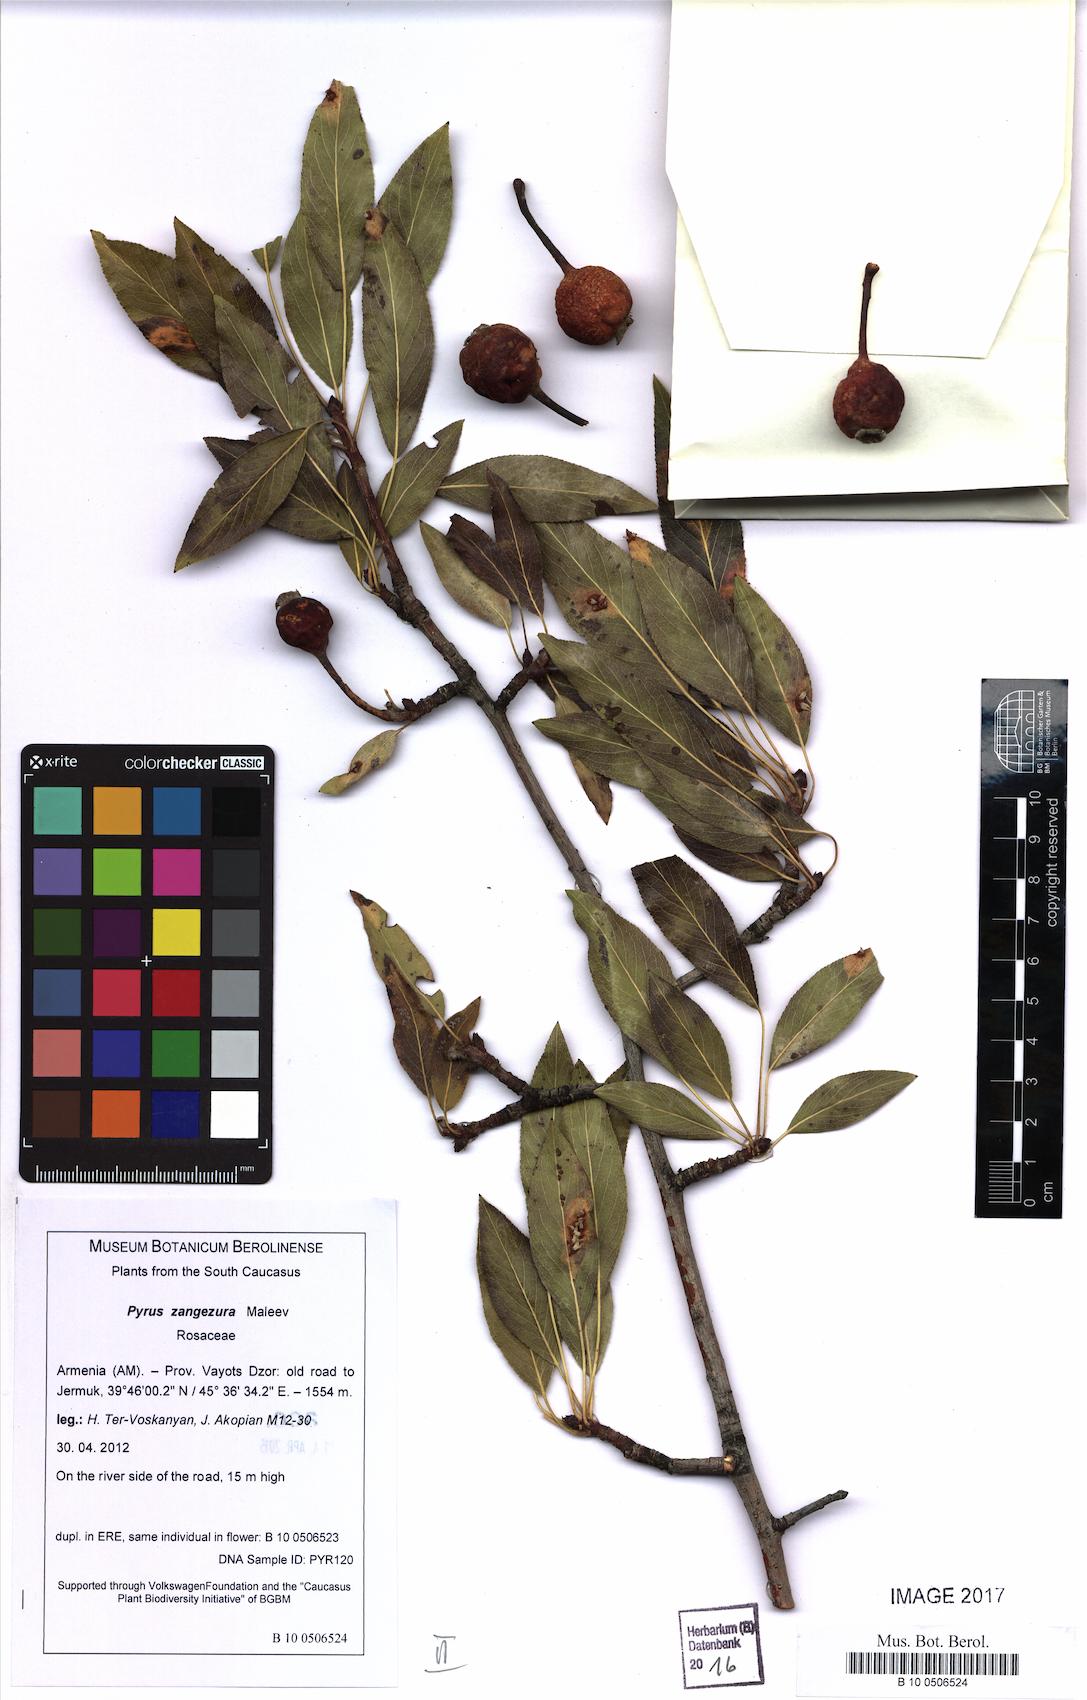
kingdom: Plantae
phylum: Tracheophyta
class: Magnoliopsida
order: Rosales
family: Rosaceae
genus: Pyrus
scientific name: Pyrus zangezura
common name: Zangezurian pear
